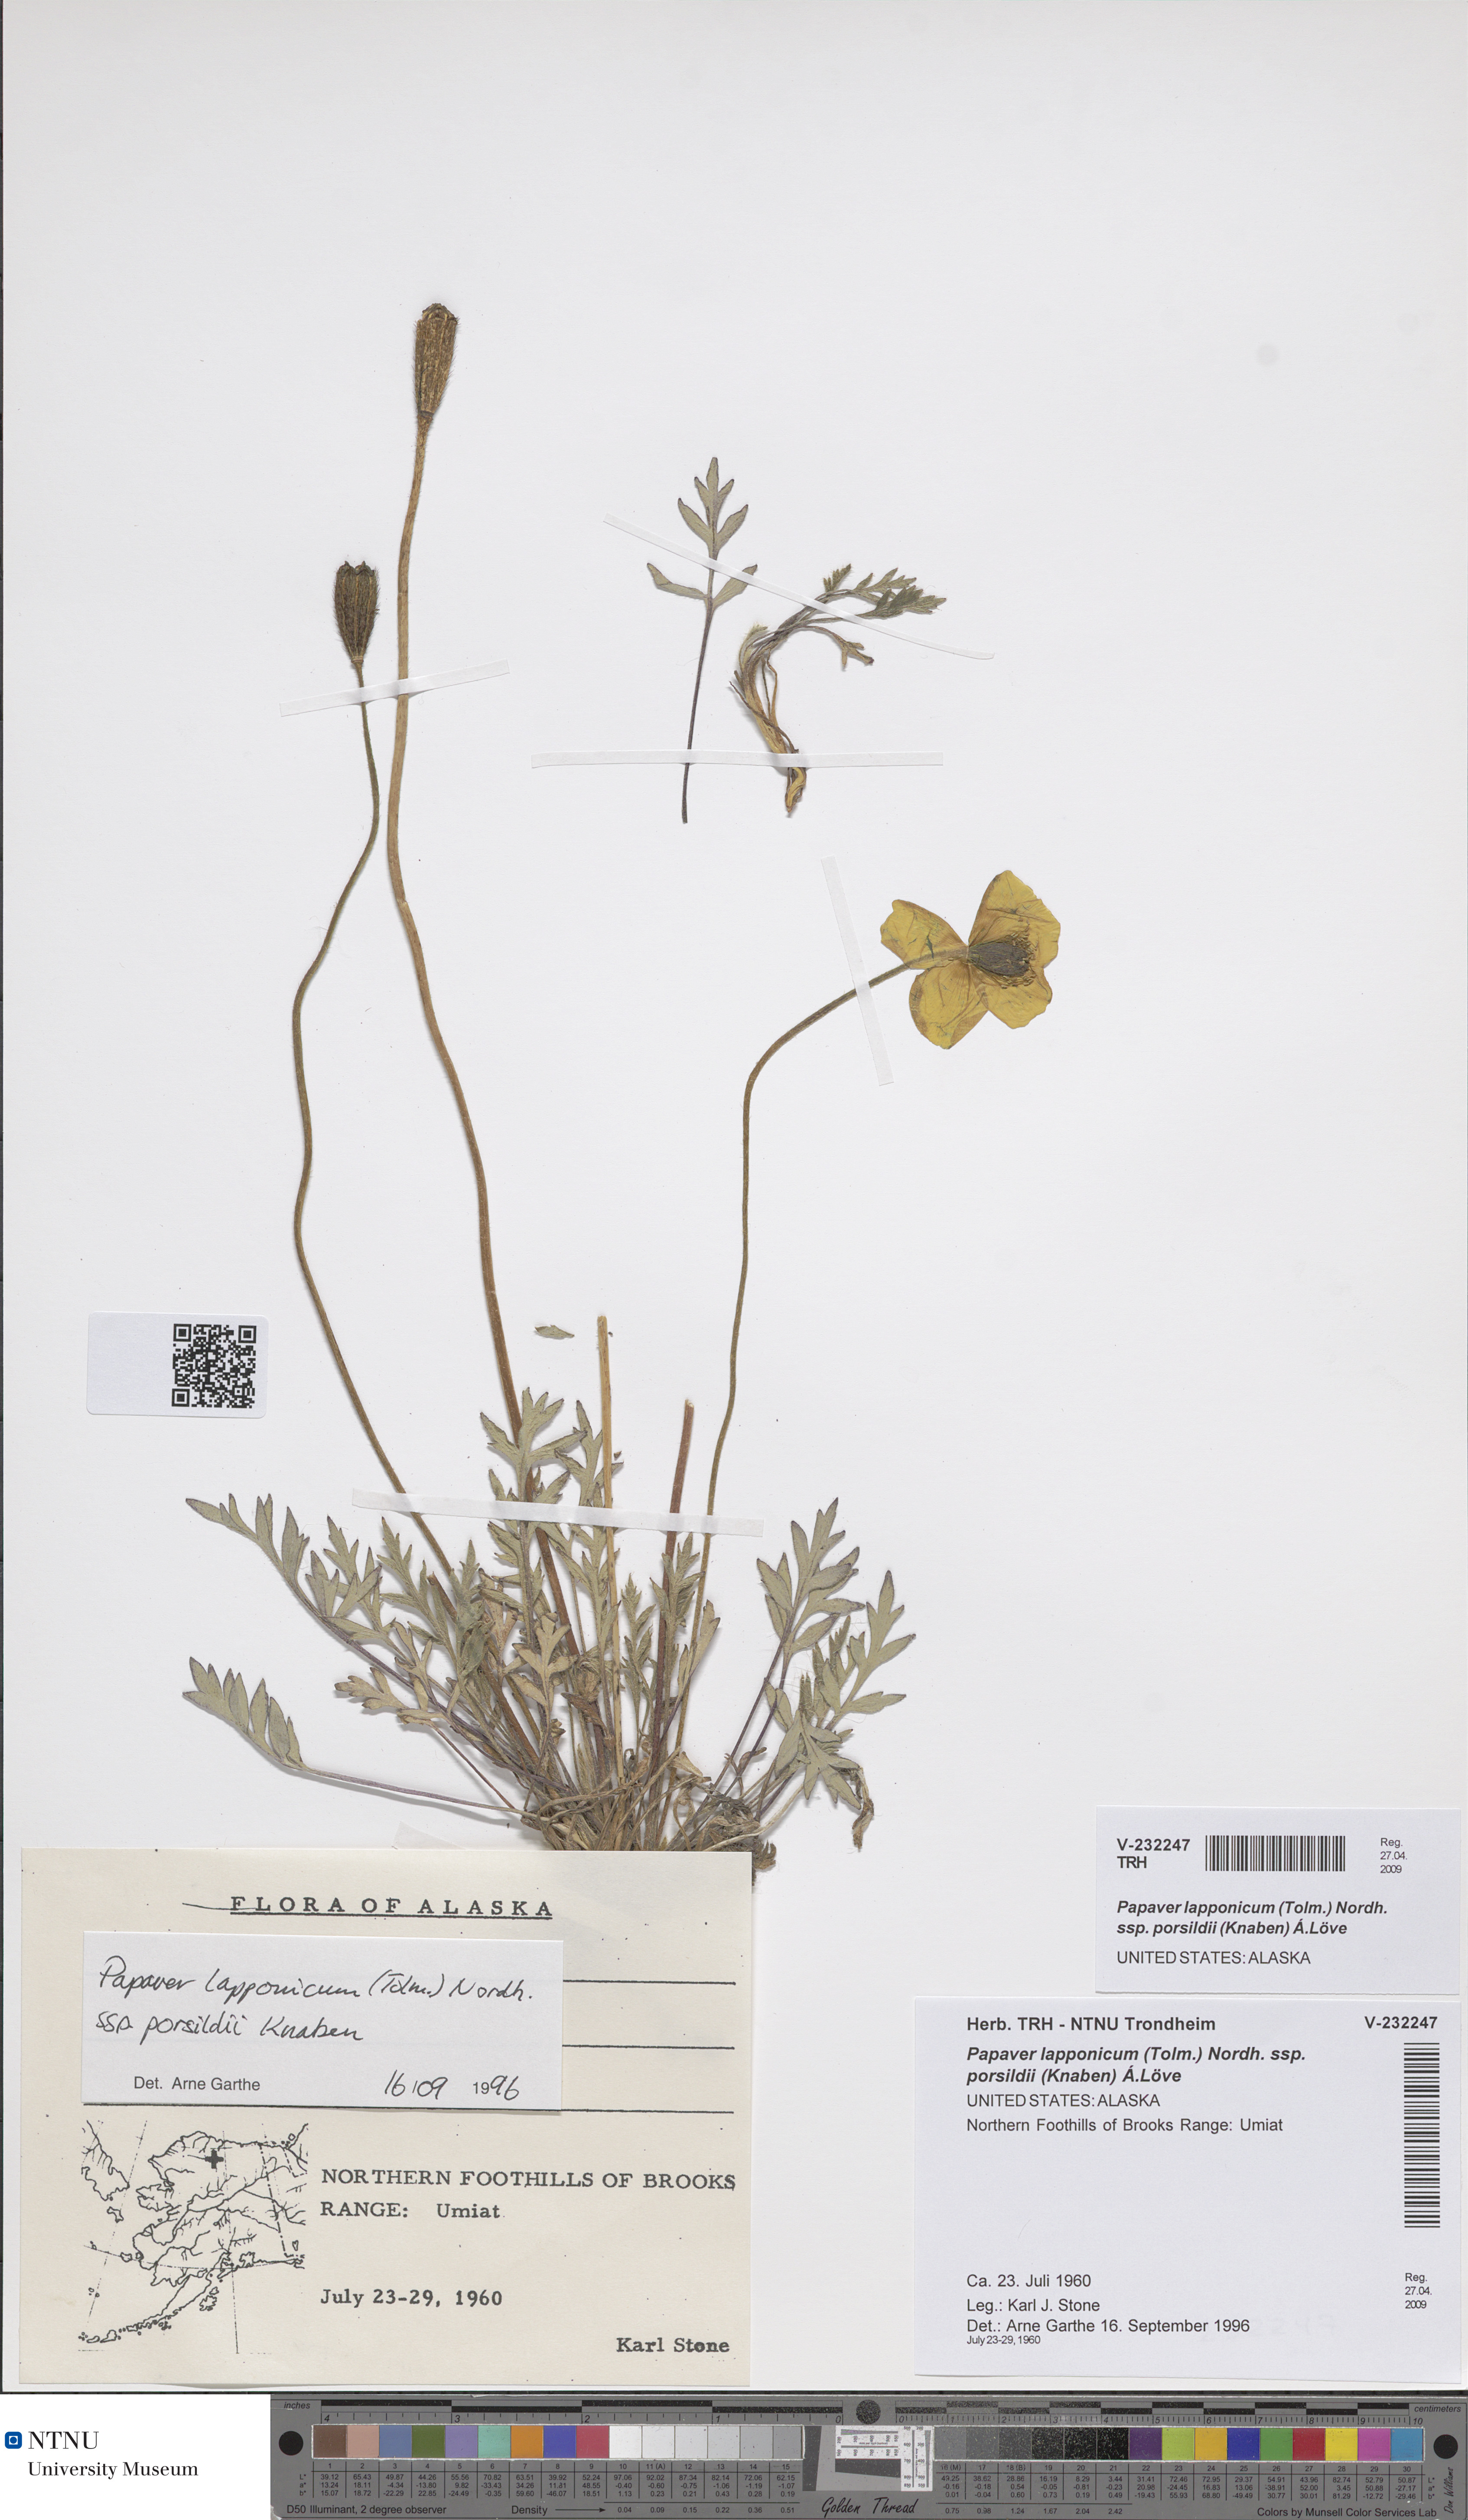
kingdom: Plantae
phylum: Tracheophyta
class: Magnoliopsida
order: Ranunculales
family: Papaveraceae
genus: Papaver
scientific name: Papaver radicatum
